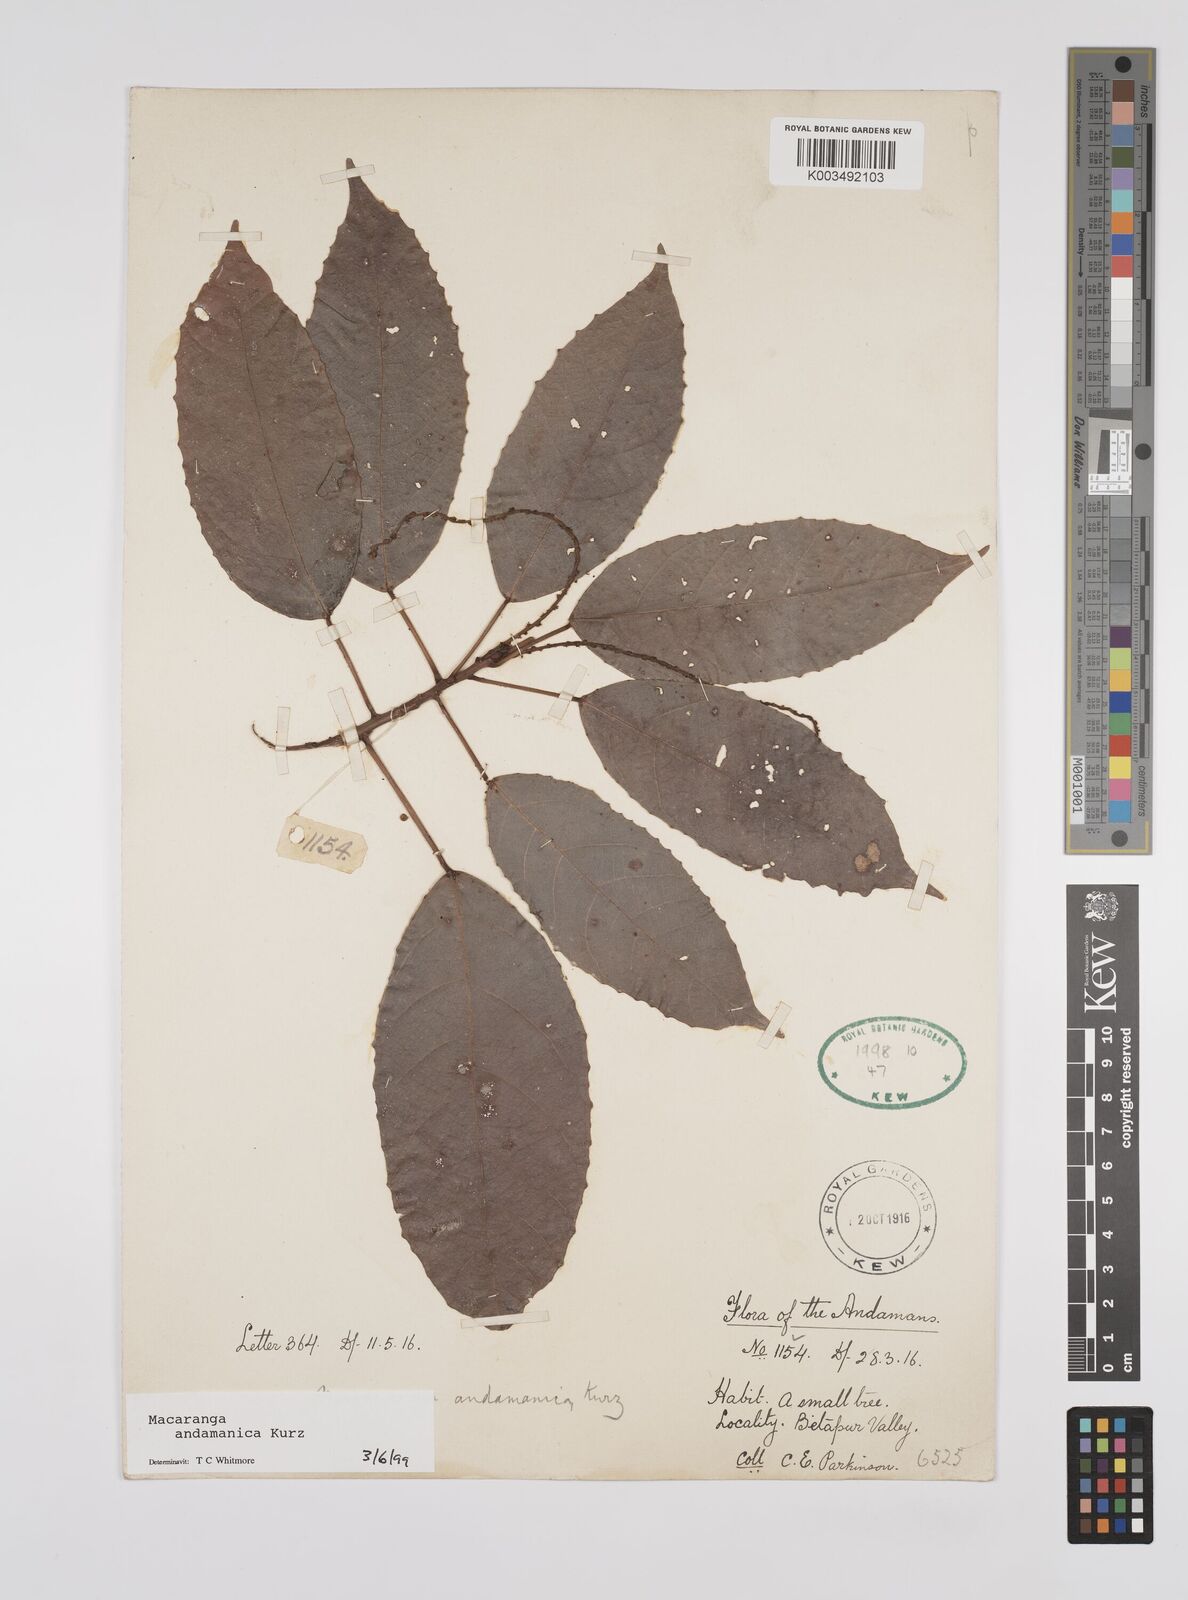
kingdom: Plantae
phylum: Tracheophyta
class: Magnoliopsida
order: Malpighiales
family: Euphorbiaceae
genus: Macaranga
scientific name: Macaranga andamanica
